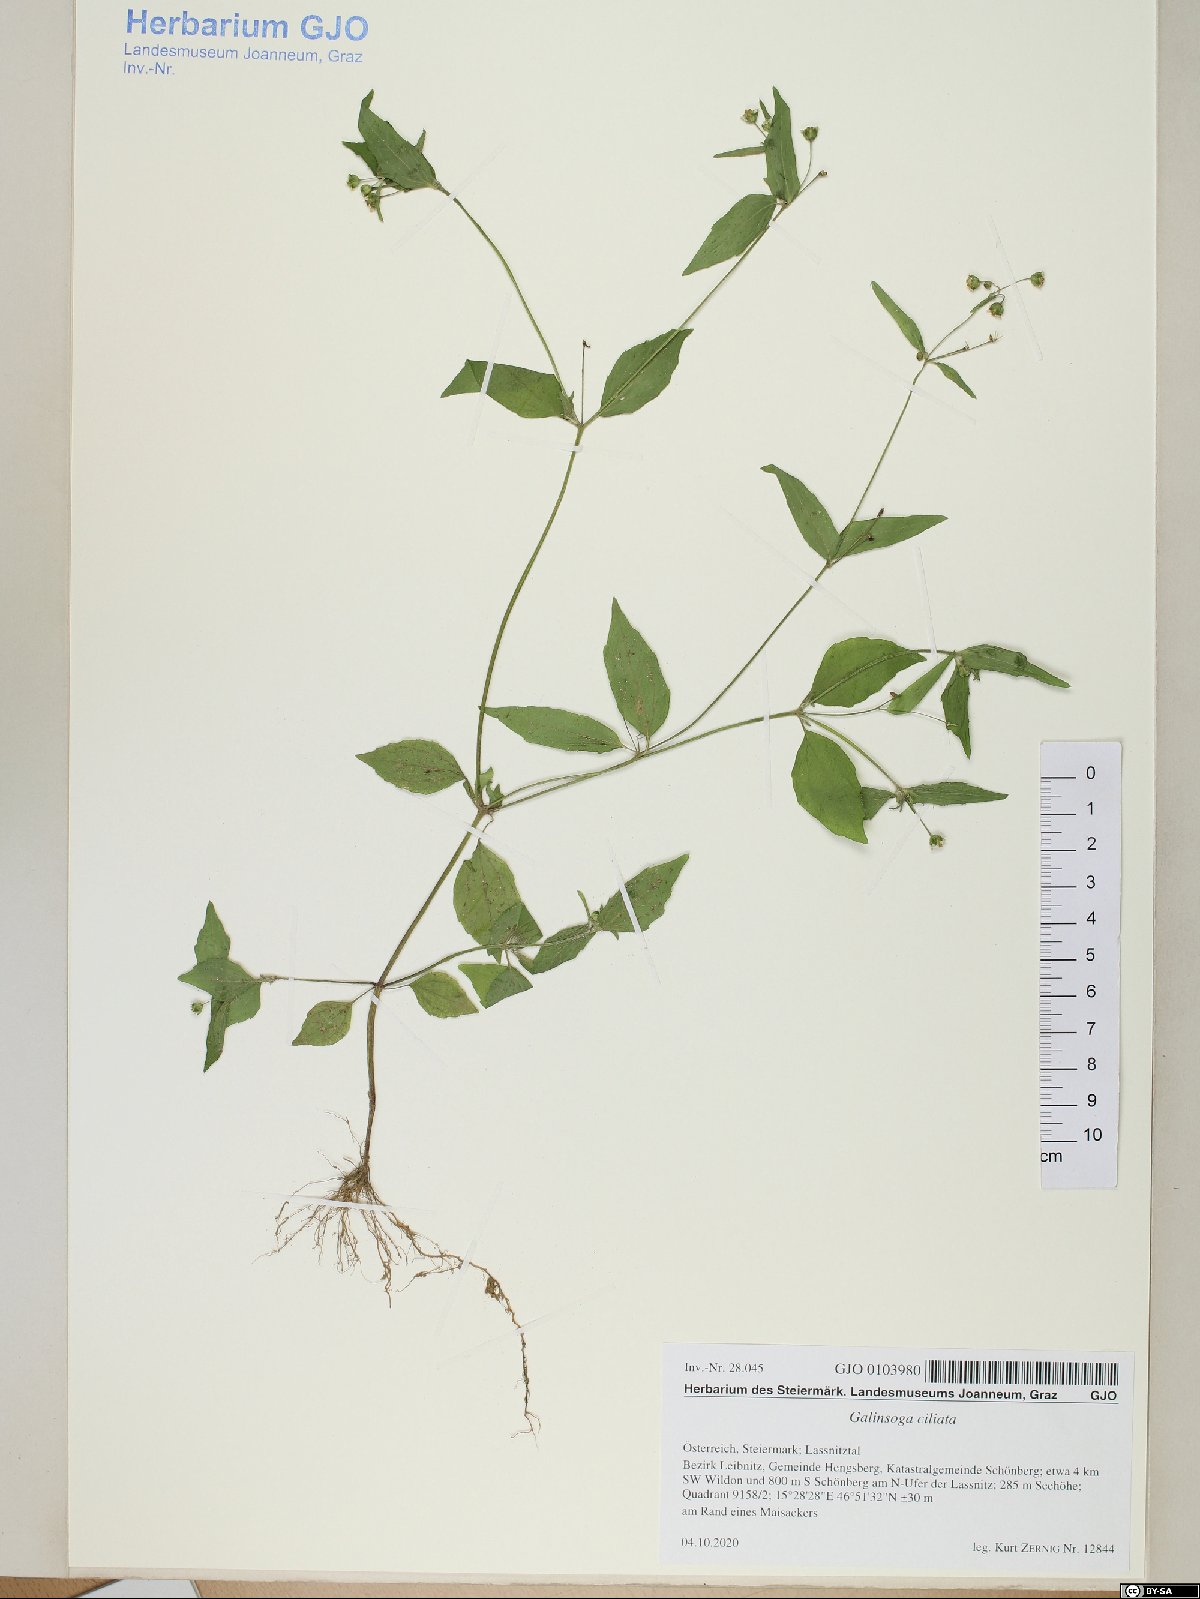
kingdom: Plantae
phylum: Tracheophyta
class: Magnoliopsida
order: Asterales
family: Asteraceae
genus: Galinsoga
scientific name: Galinsoga quadriradiata
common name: Shaggy soldier
